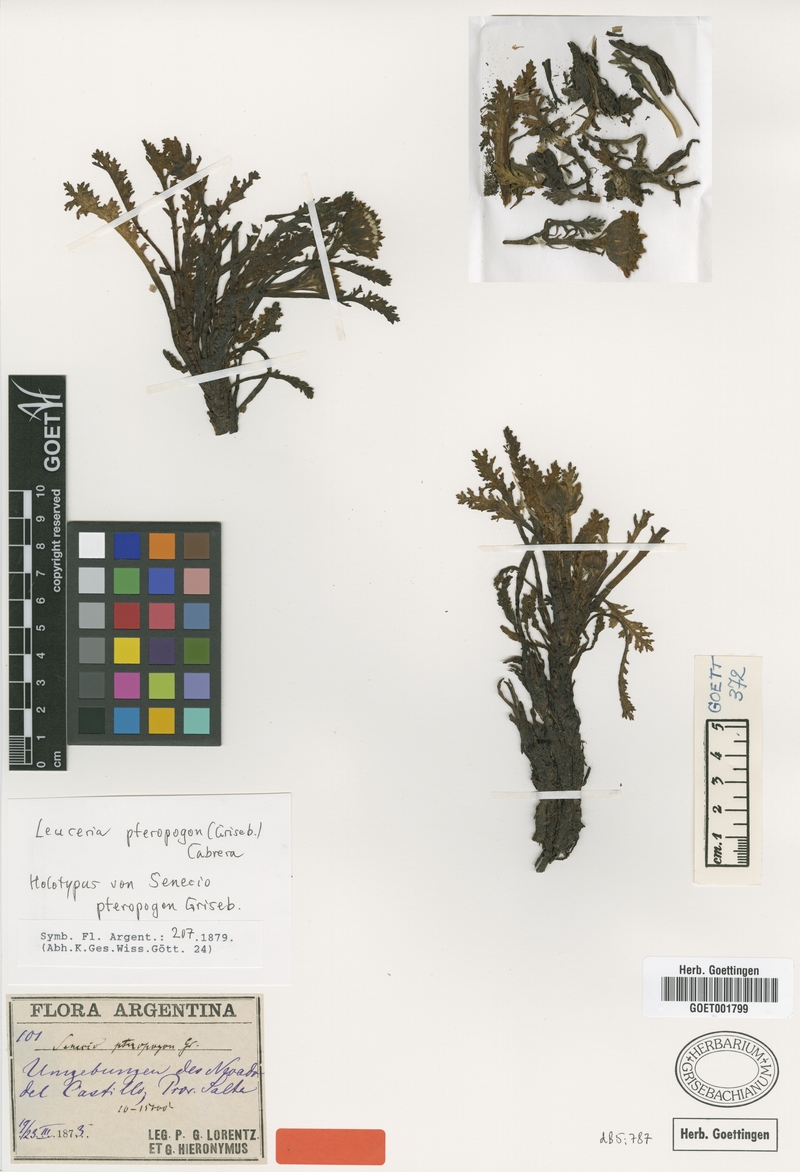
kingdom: Plantae
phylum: Tracheophyta
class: Magnoliopsida
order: Asterales
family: Asteraceae
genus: Leucheria
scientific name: Leucheria pteropogon
